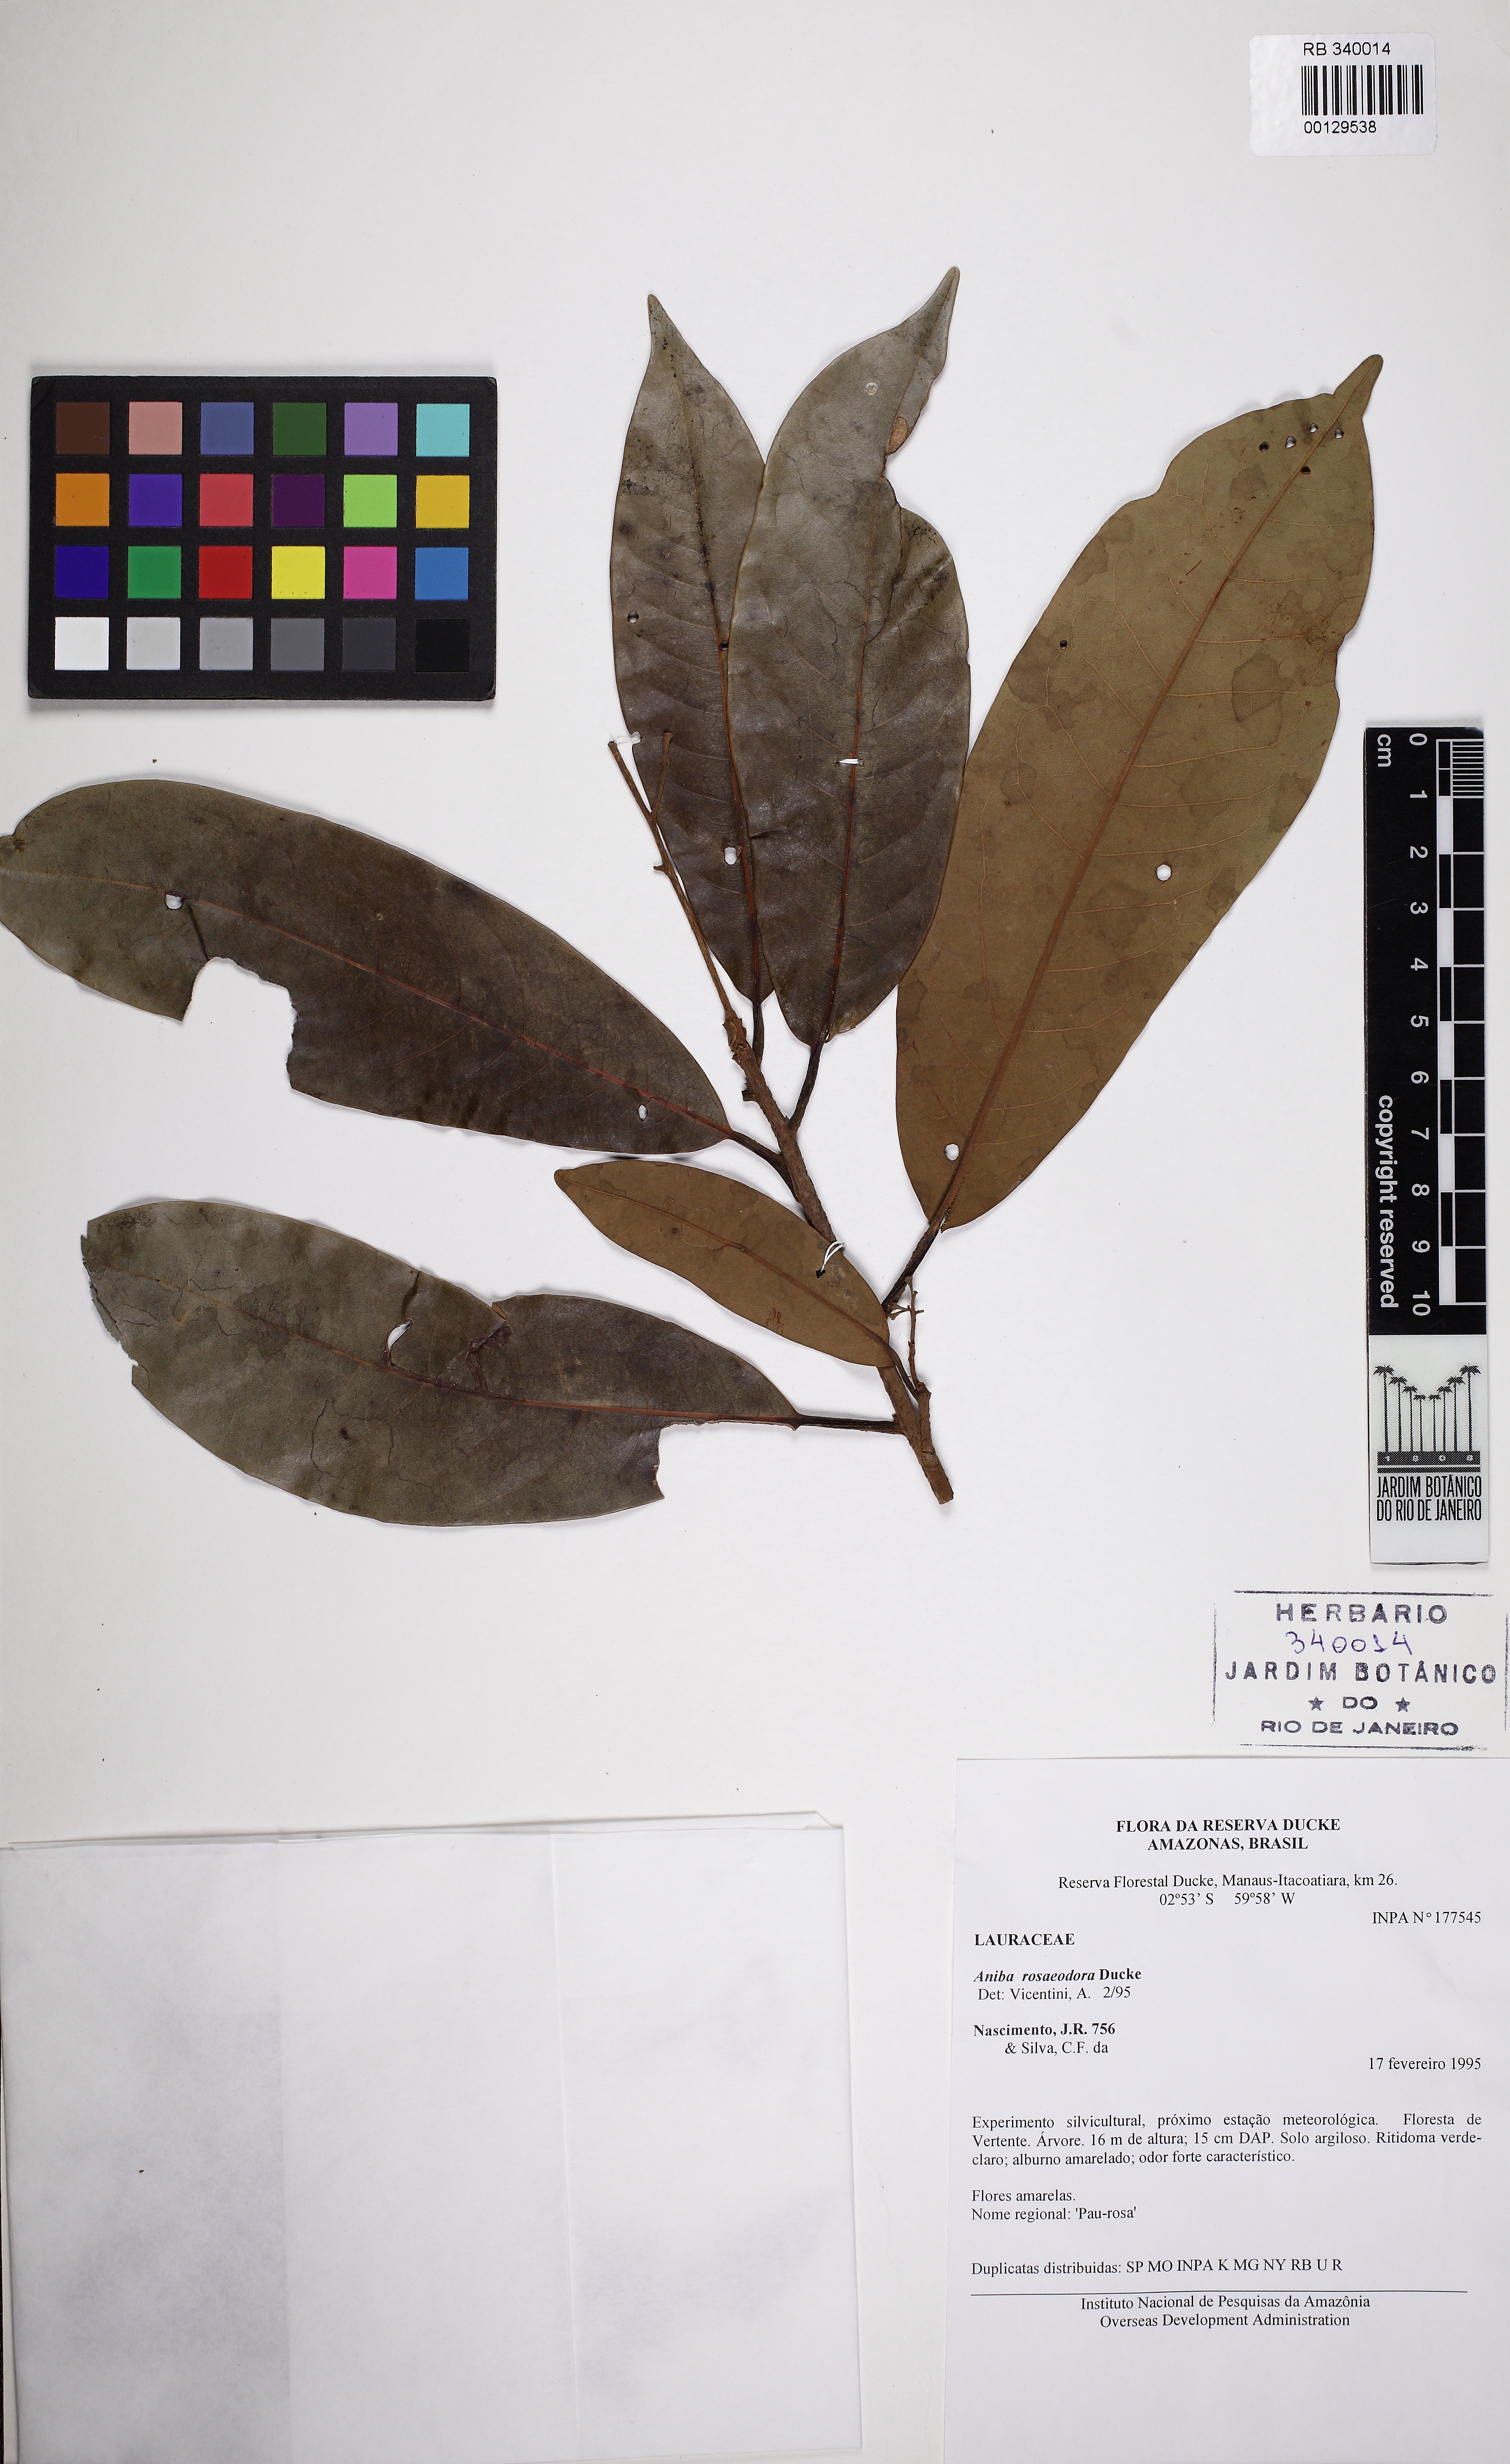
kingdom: Plantae
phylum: Tracheophyta
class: Magnoliopsida
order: Laurales
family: Lauraceae
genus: Aniba
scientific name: Aniba rosaeodora
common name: Brazilian rosewood
